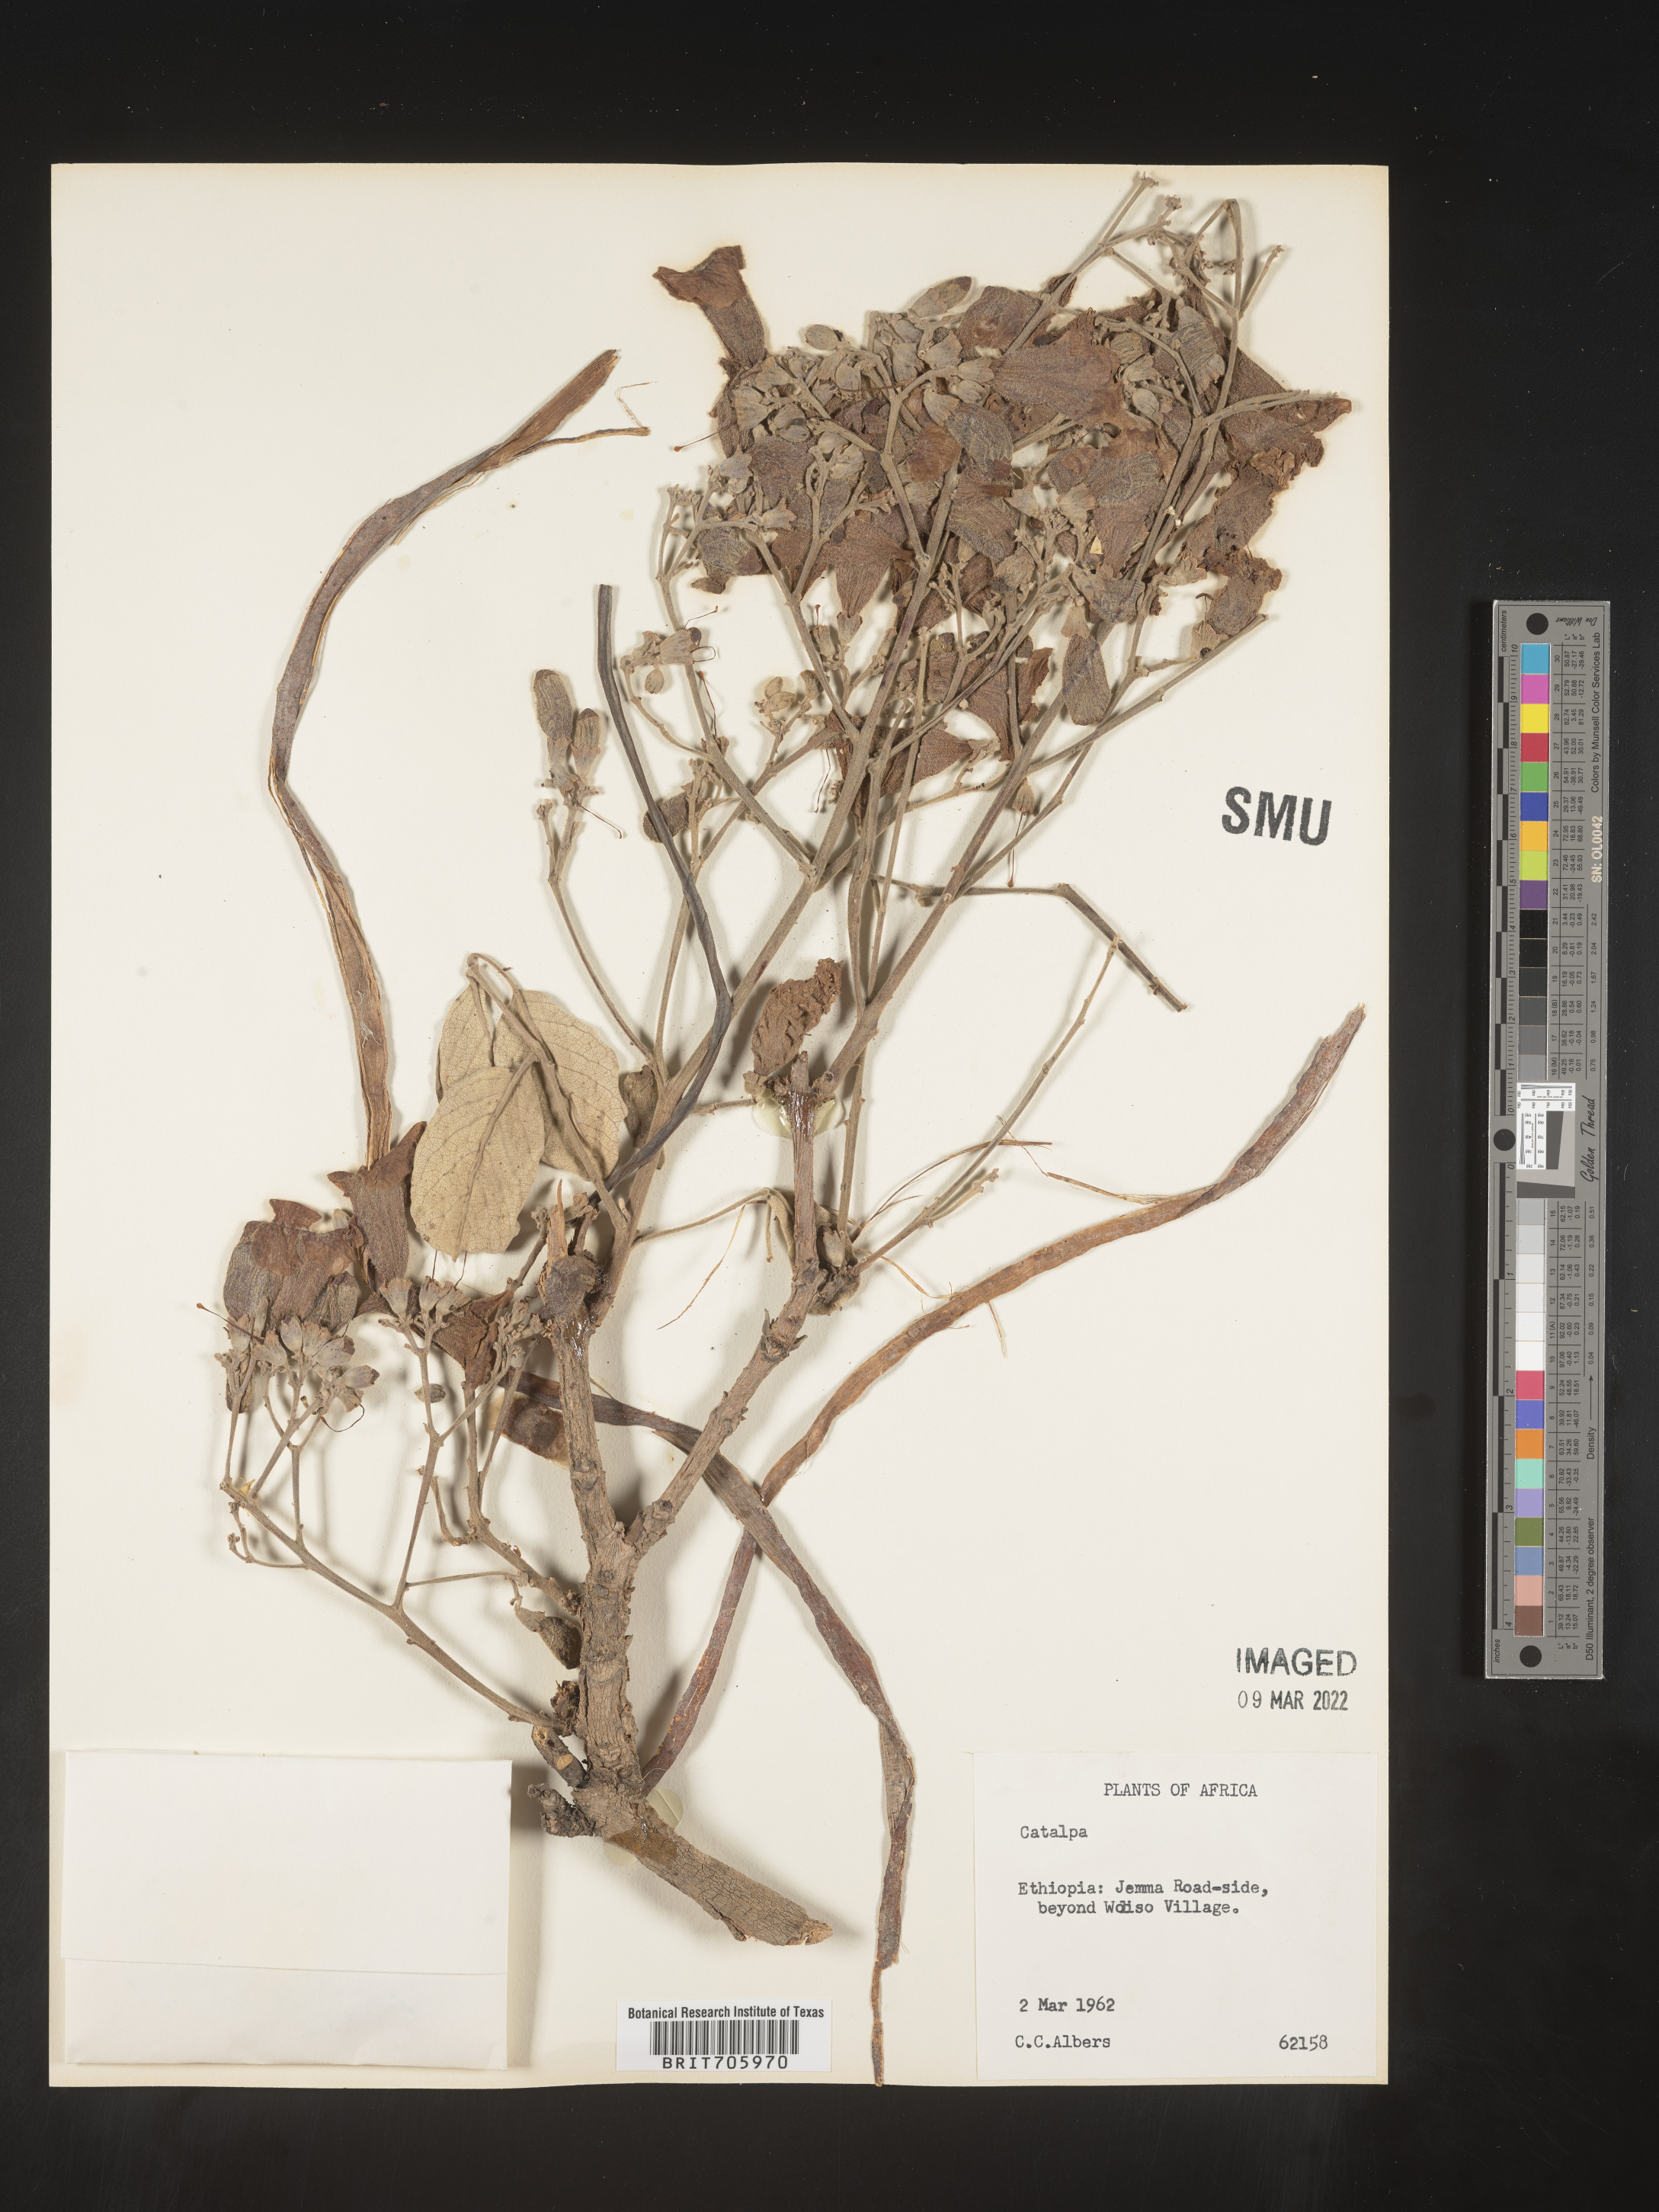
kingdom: Plantae
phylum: Tracheophyta
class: Magnoliopsida
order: Lamiales
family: Bignoniaceae
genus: Catalpa
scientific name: Catalpa
